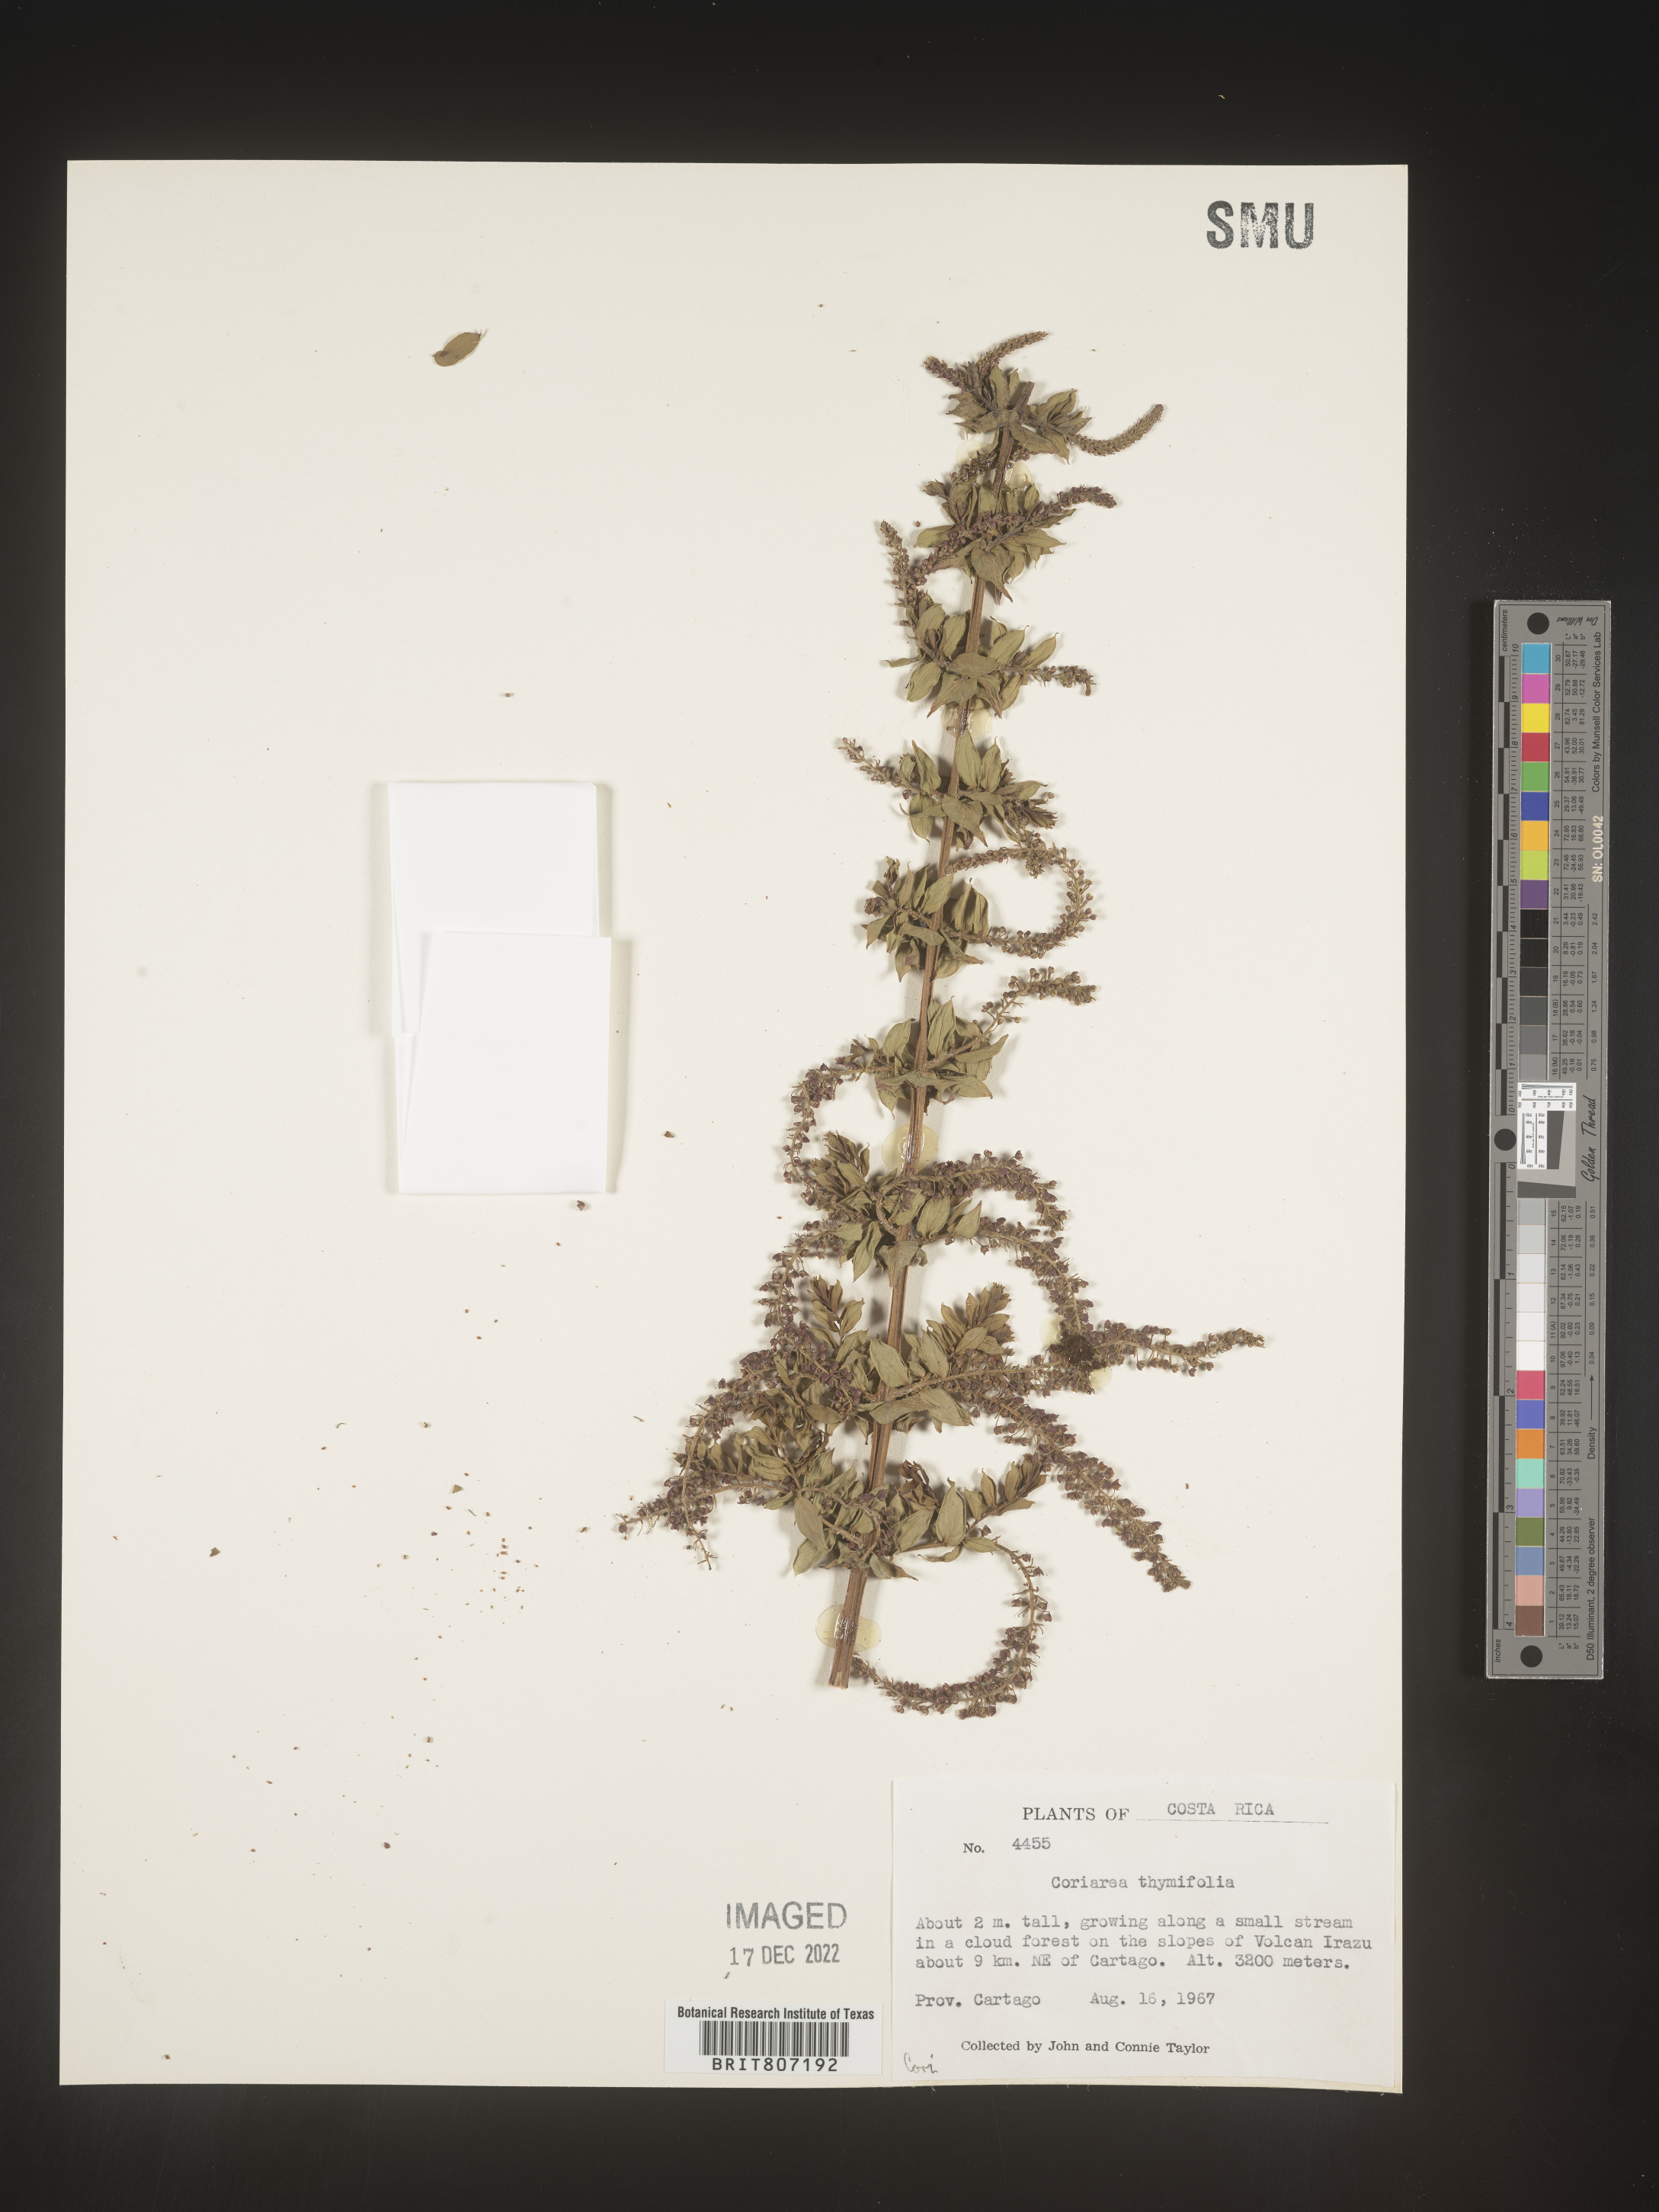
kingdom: Plantae
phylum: Tracheophyta
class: Magnoliopsida
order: Cucurbitales
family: Coriariaceae
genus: Coriaria
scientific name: Coriaria
